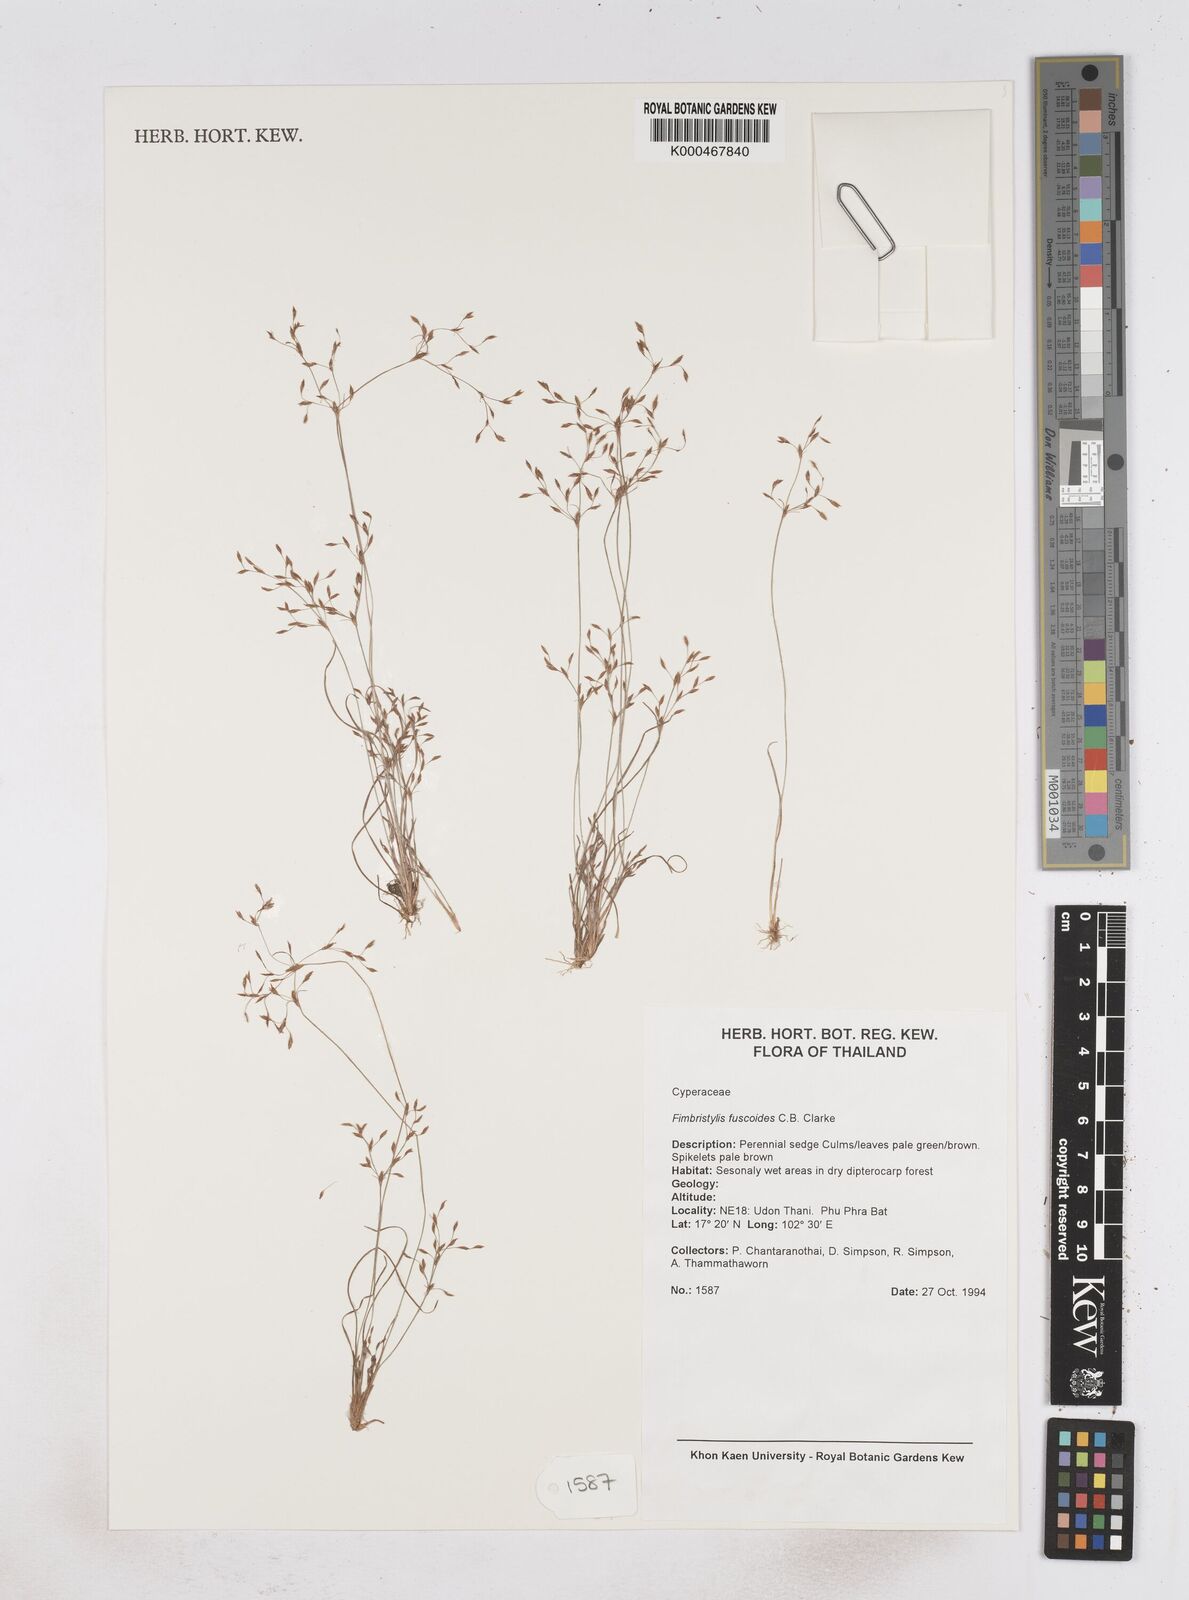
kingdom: Plantae
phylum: Tracheophyta
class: Liliopsida
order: Poales
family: Cyperaceae
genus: Fimbristylis
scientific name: Fimbristylis fuscoides
